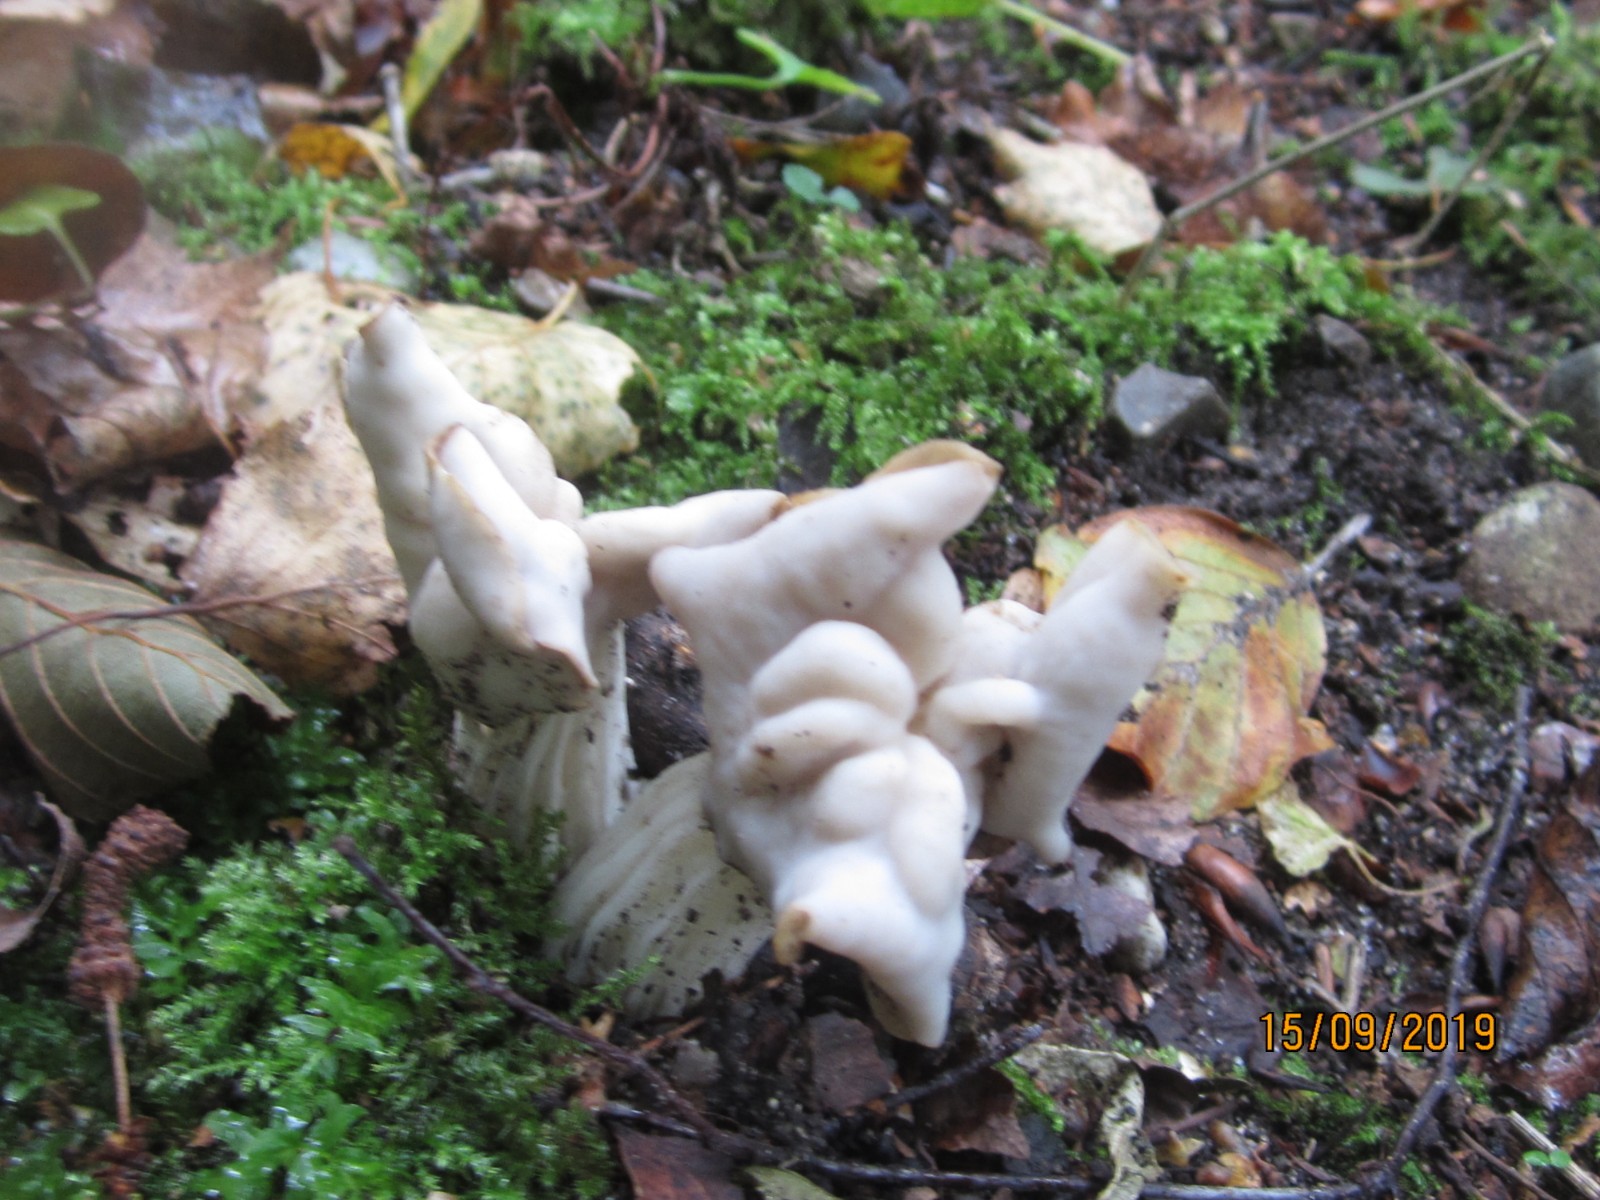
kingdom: Fungi
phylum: Ascomycota
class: Pezizomycetes
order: Pezizales
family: Helvellaceae
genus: Helvella
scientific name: Helvella crispa
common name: kruset foldhat
